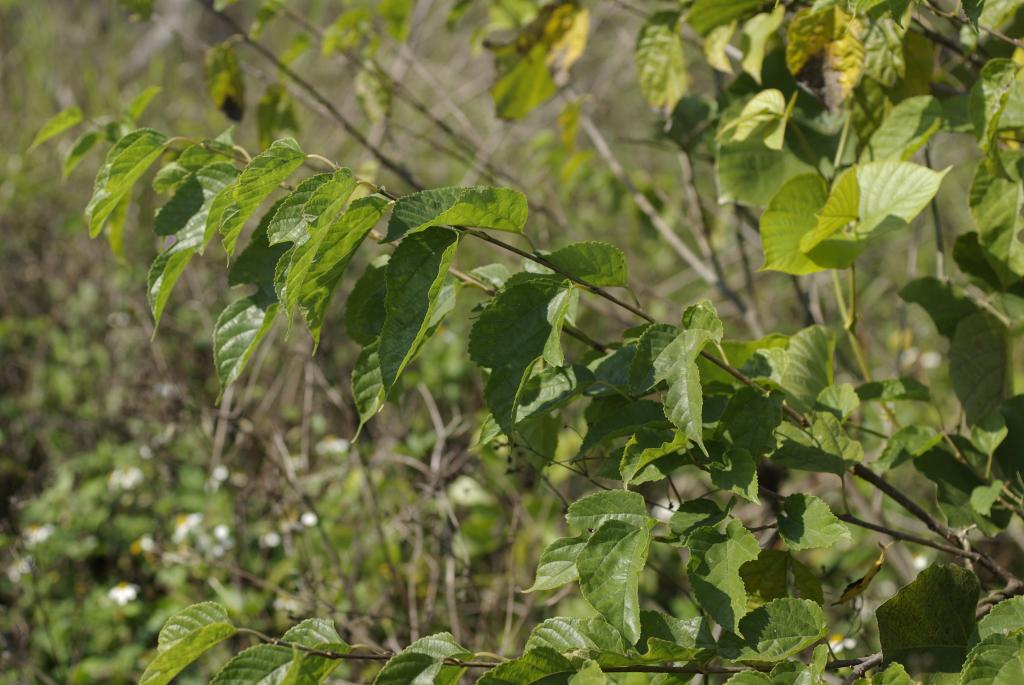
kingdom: Plantae
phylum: Tracheophyta
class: Magnoliopsida
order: Rosales
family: Moraceae
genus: Broussonetia
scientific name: Broussonetia papyrifera
